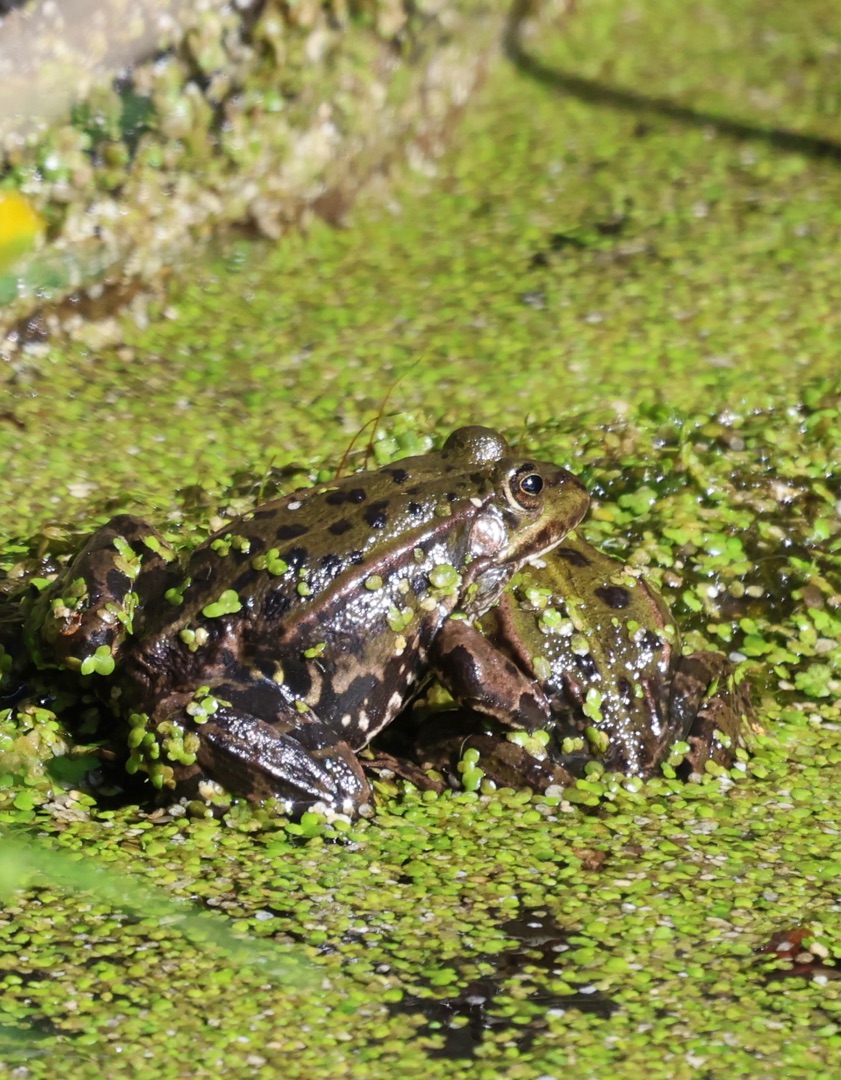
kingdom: Animalia
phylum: Chordata
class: Amphibia
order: Anura
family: Ranidae
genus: Pelophylax
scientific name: Pelophylax lessonae
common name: Grøn frø
